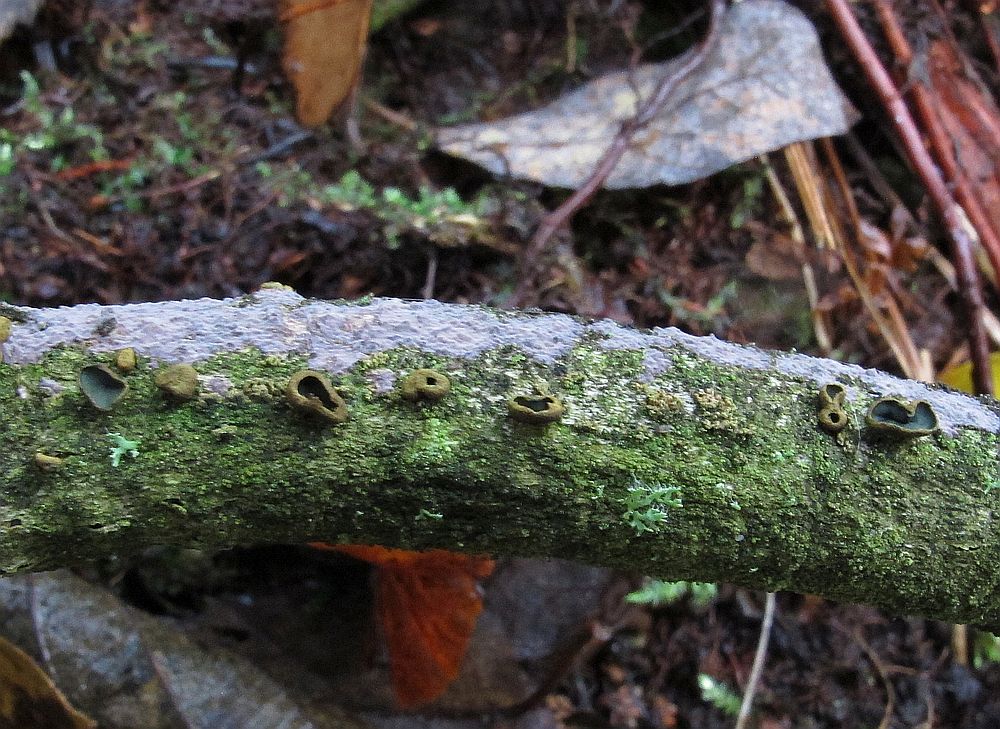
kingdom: Fungi
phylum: Ascomycota
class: Leotiomycetes
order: Helotiales
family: Cordieritidaceae
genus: Ionomidotis
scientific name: Ionomidotis fulvotingens
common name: rødmende tjæreskive
